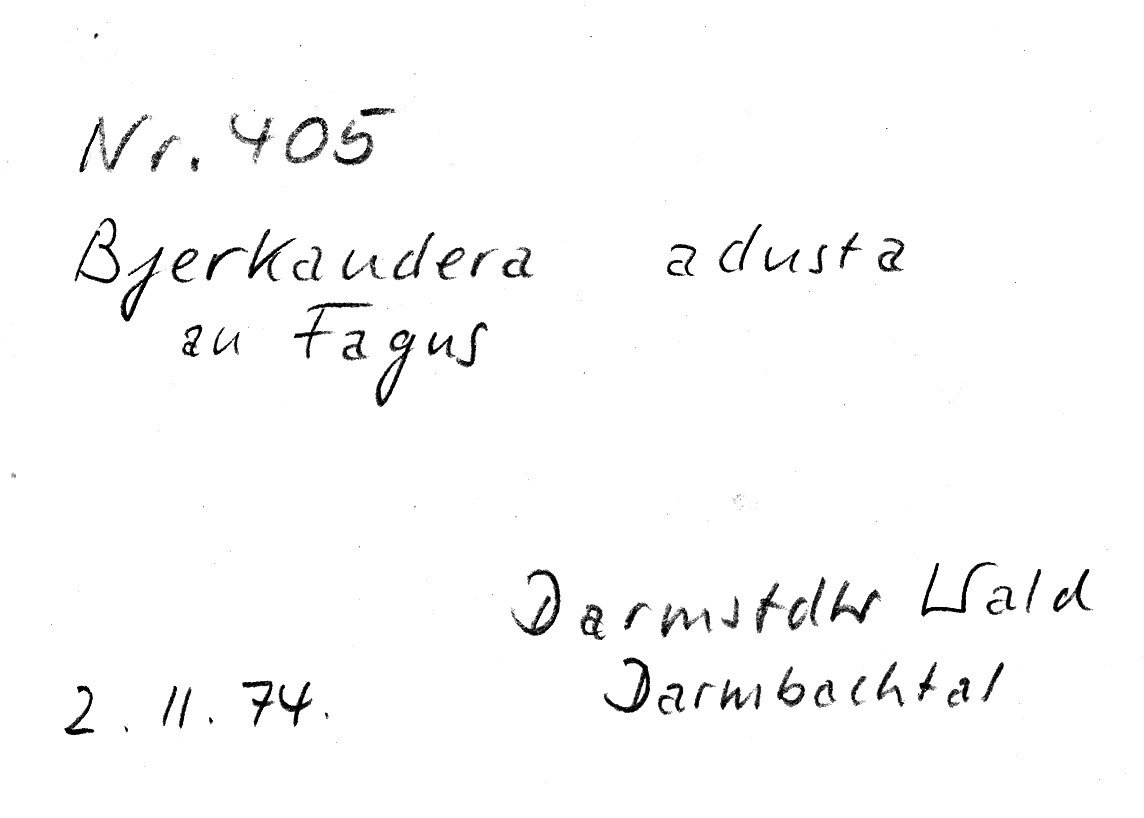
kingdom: Fungi
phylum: Basidiomycota
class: Agaricomycetes
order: Polyporales
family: Phanerochaetaceae
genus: Bjerkandera
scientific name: Bjerkandera adusta
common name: Smoky bracket
